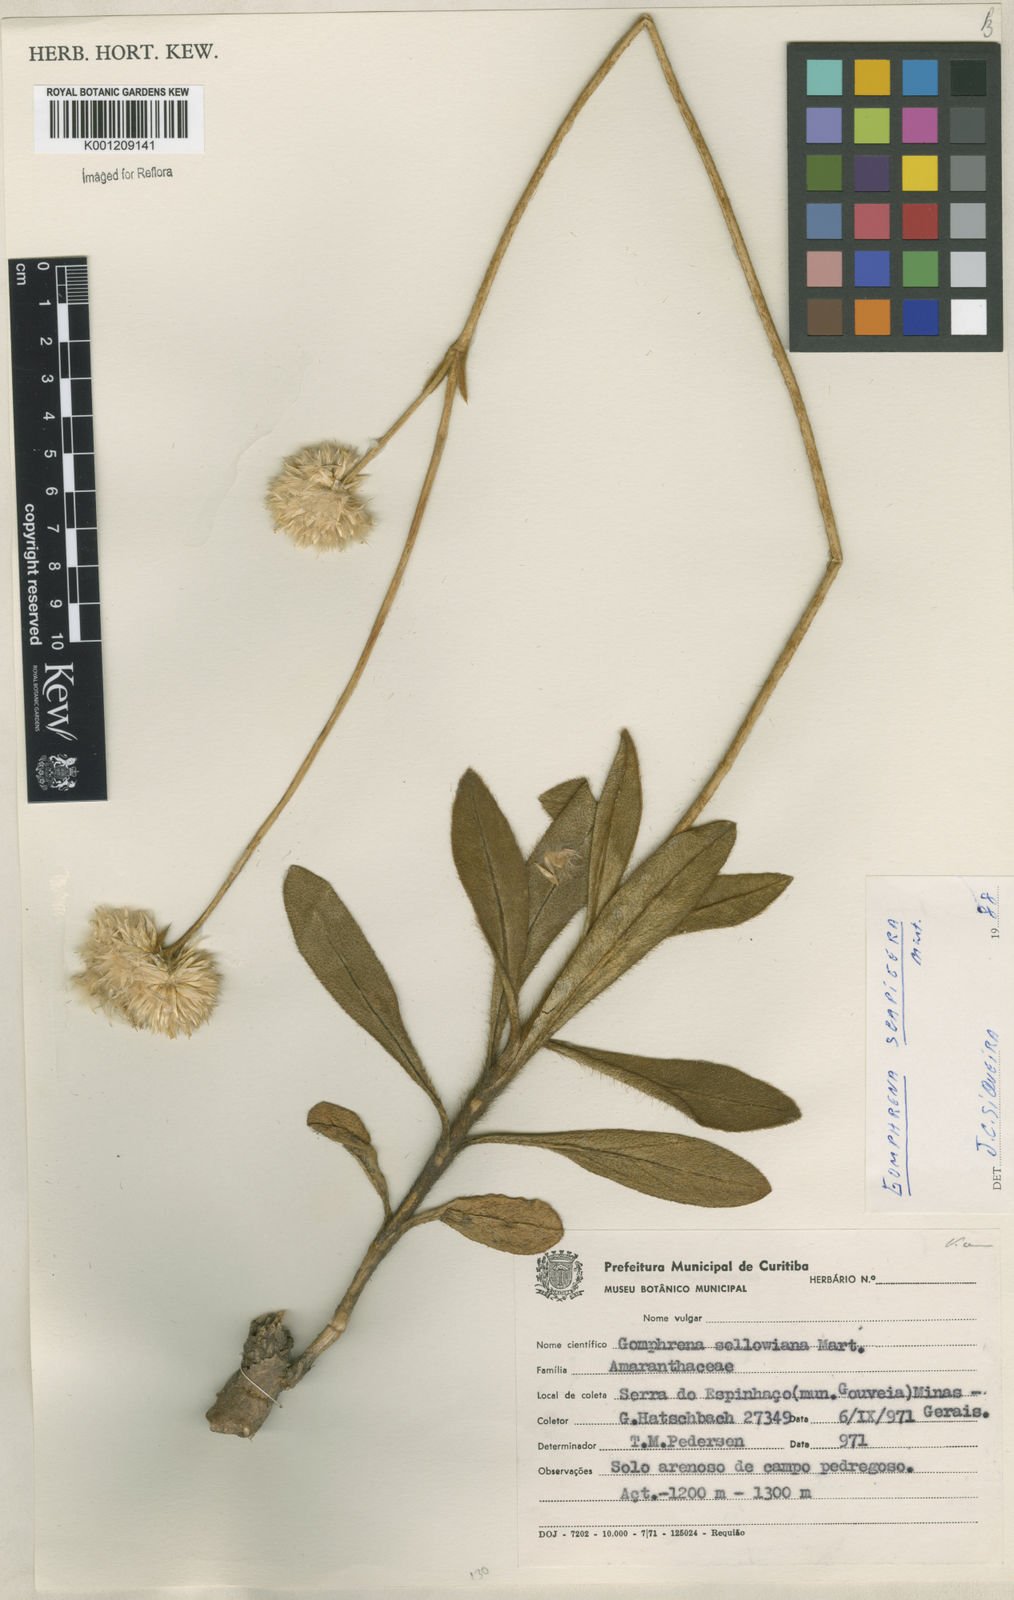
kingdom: Plantae
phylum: Tracheophyta
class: Magnoliopsida
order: Caryophyllales
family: Amaranthaceae
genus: Gomphrena
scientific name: Gomphrena sellowiana
